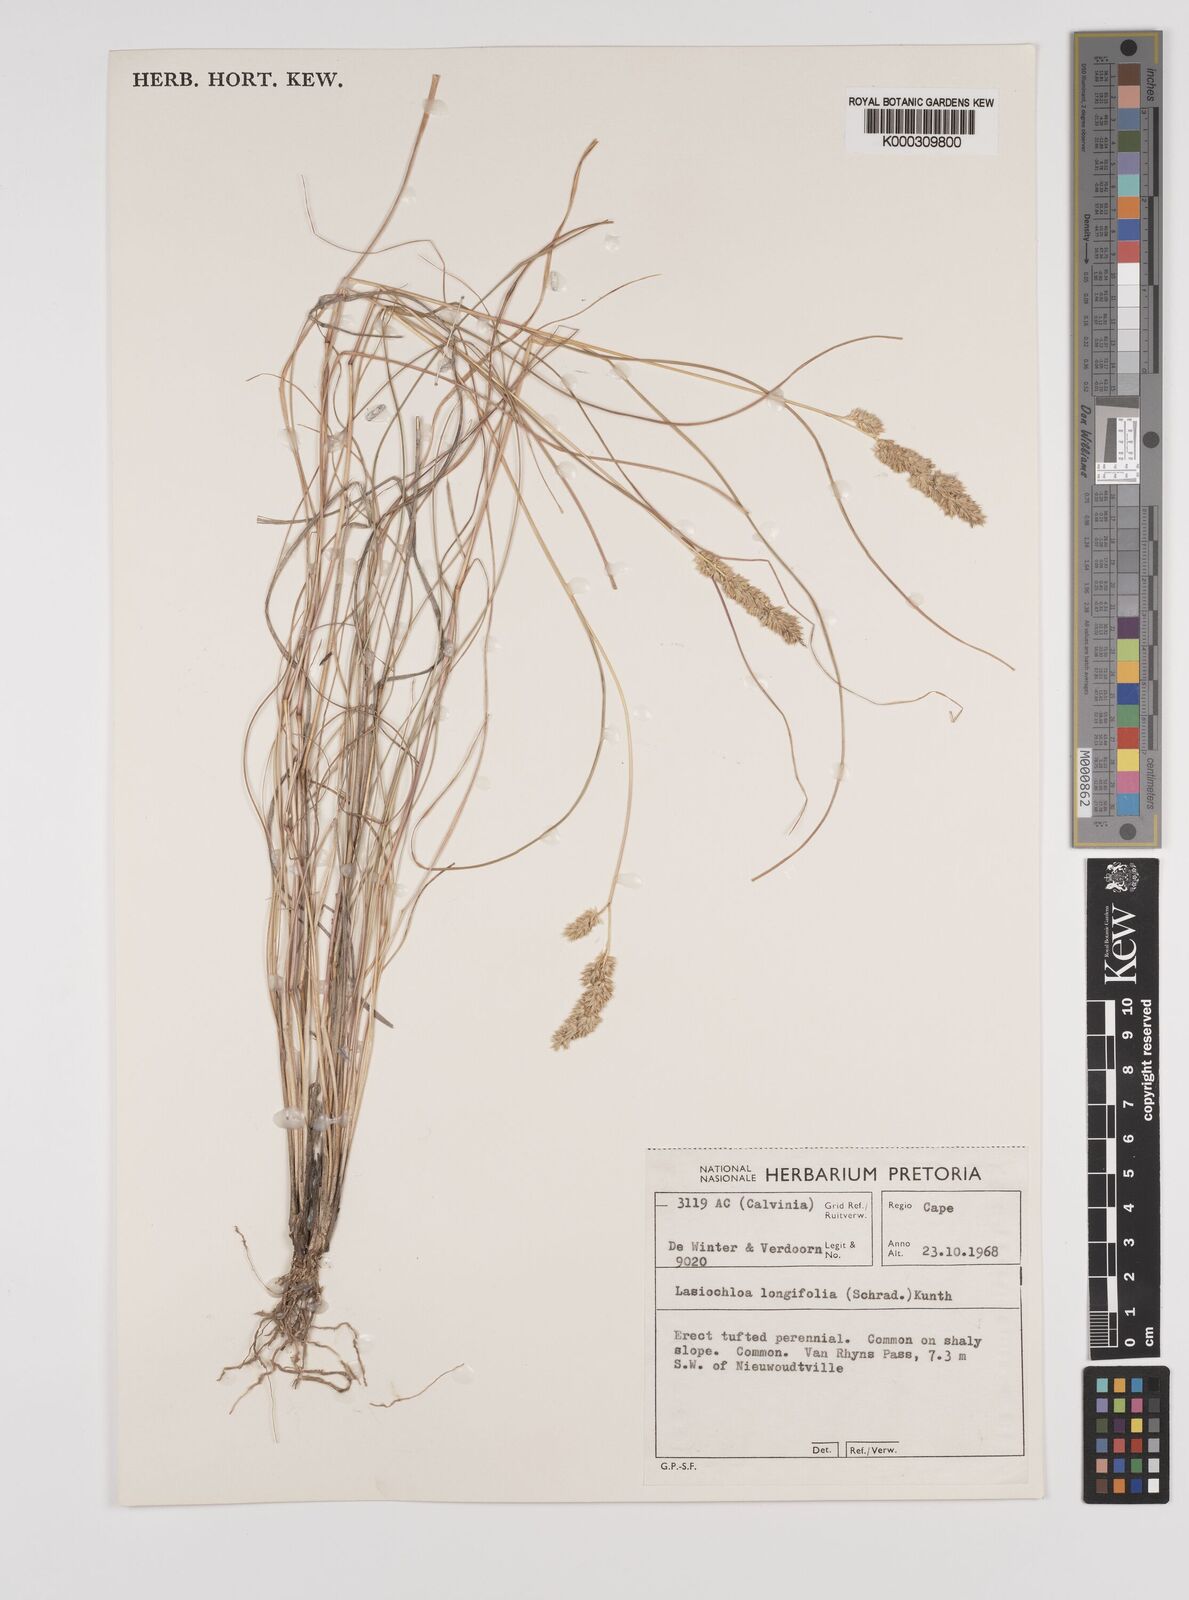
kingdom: Plantae
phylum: Tracheophyta
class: Liliopsida
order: Poales
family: Poaceae
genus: Tribolium
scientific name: Tribolium hispidum
